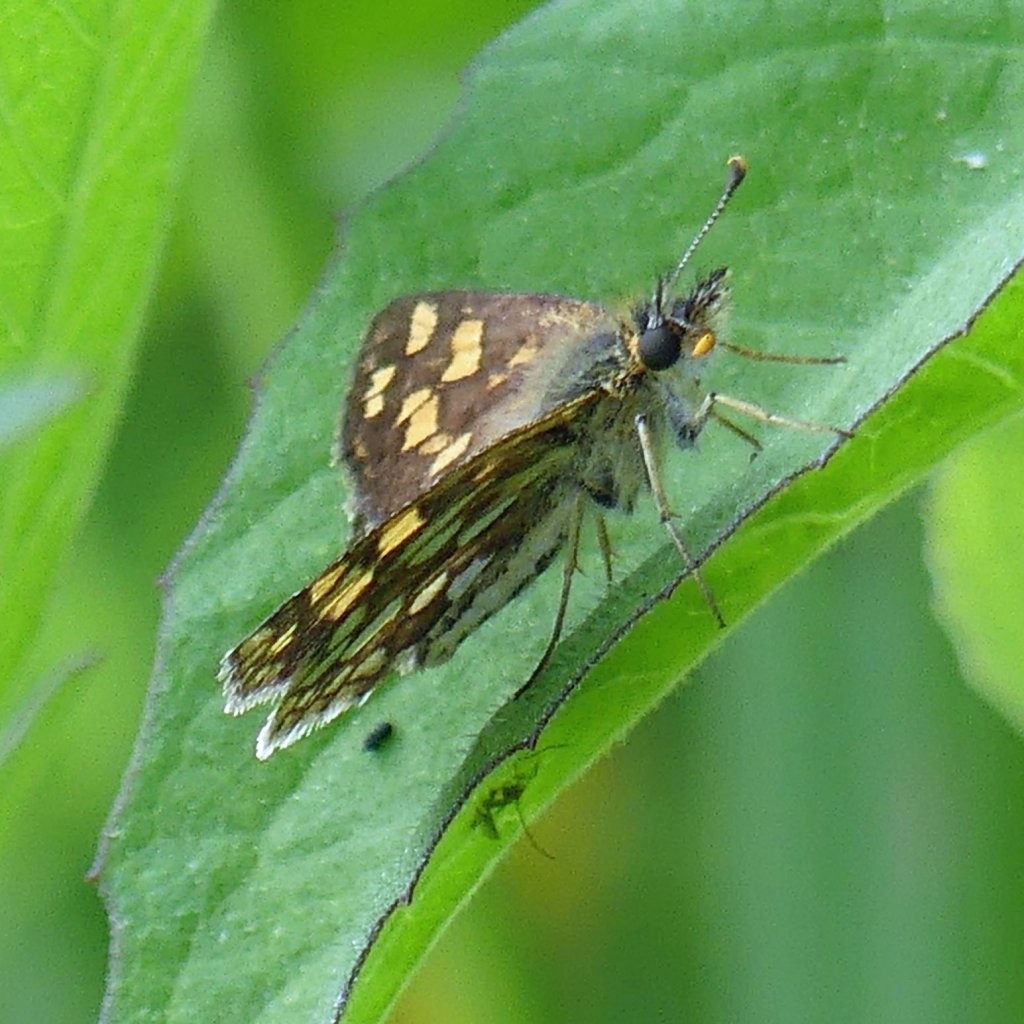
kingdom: Animalia
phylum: Arthropoda
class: Insecta
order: Lepidoptera
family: Hesperiidae
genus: Carterocephalus
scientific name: Carterocephalus palaemon
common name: Chequered Skipper
